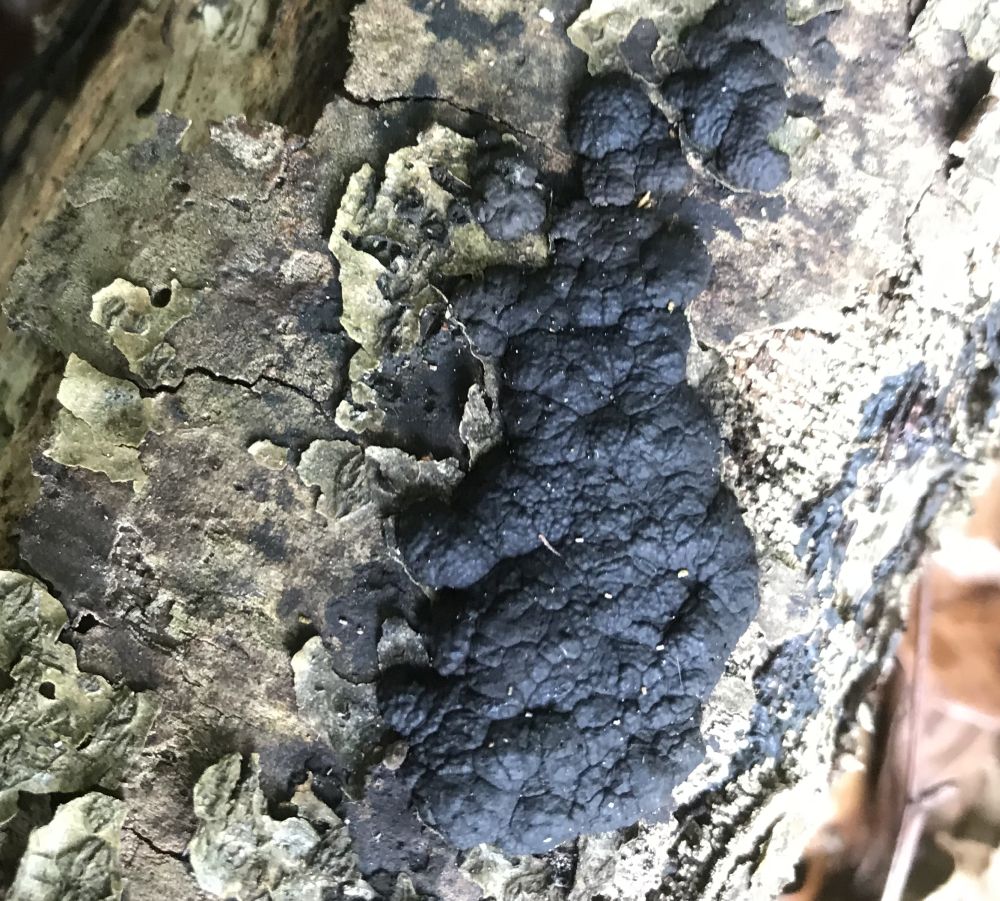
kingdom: Fungi
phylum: Ascomycota
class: Sordariomycetes
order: Xylariales
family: Hypoxylaceae
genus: Jackrogersella
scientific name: Jackrogersella cohaerens
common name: sammenflydende kulbær
